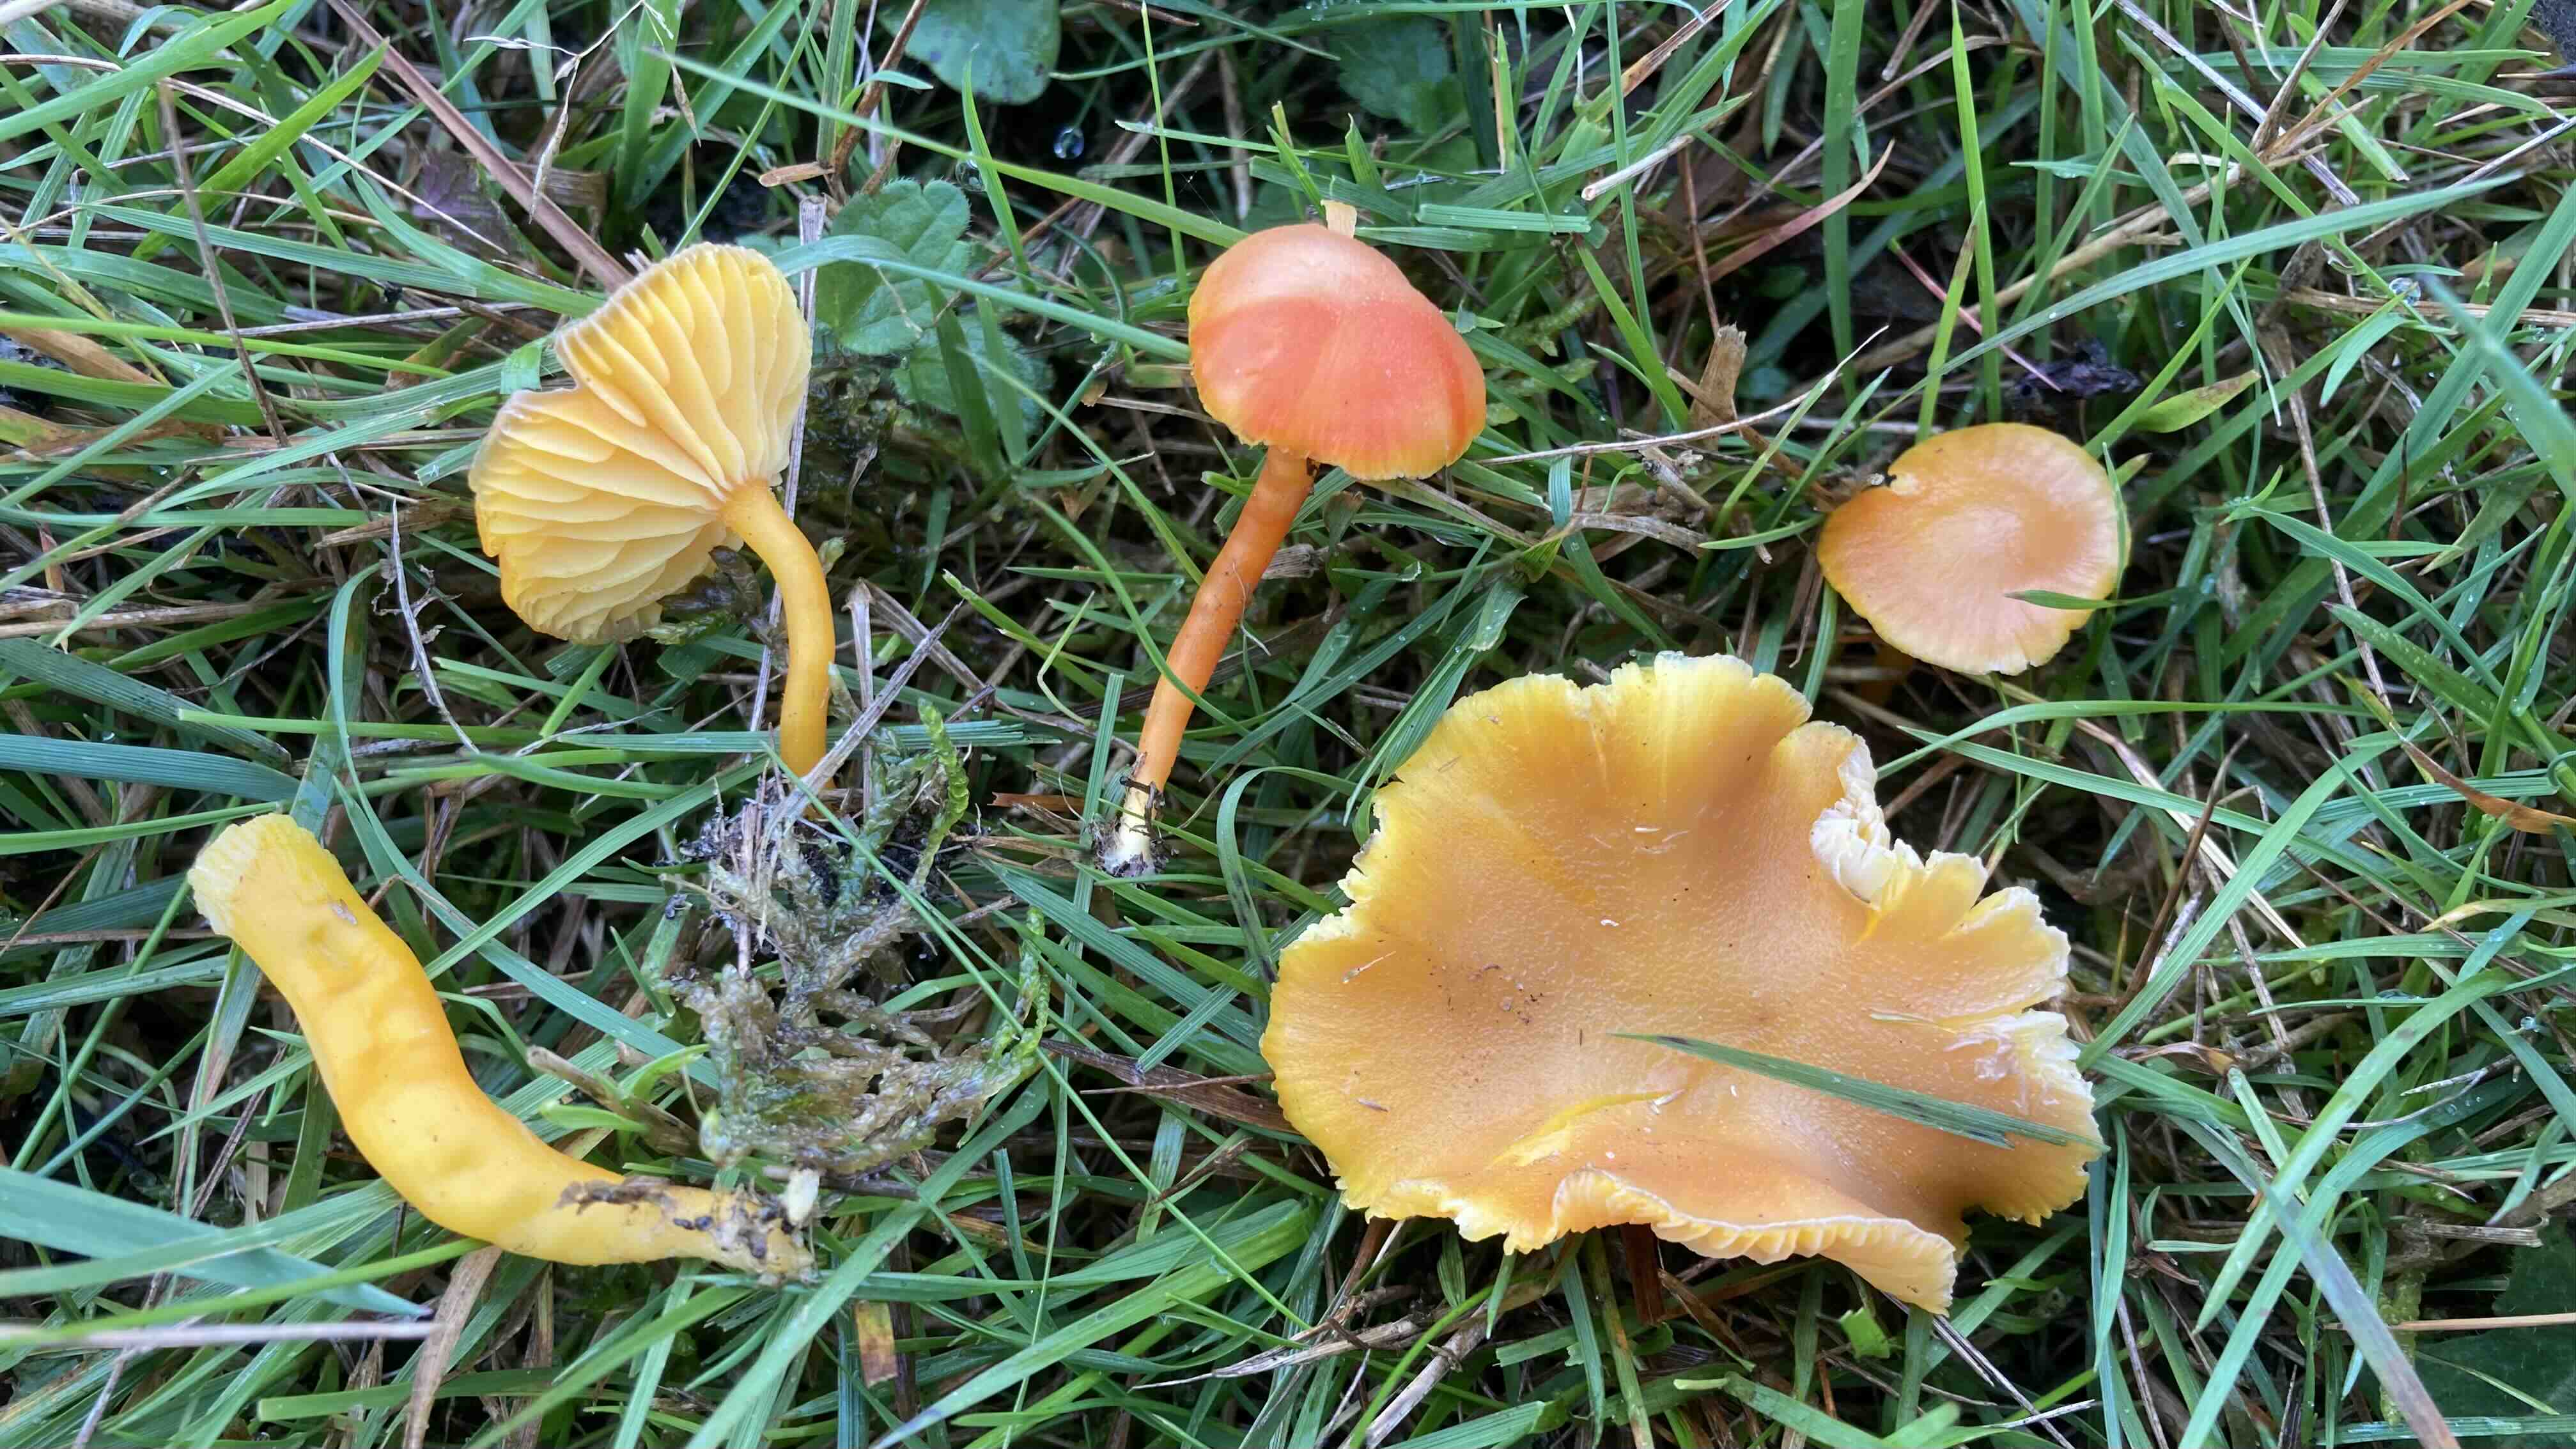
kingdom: Fungi
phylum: Basidiomycota
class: Agaricomycetes
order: Agaricales
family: Hygrophoraceae
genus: Hygrocybe
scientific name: Hygrocybe miniata
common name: mønje-vokshat
